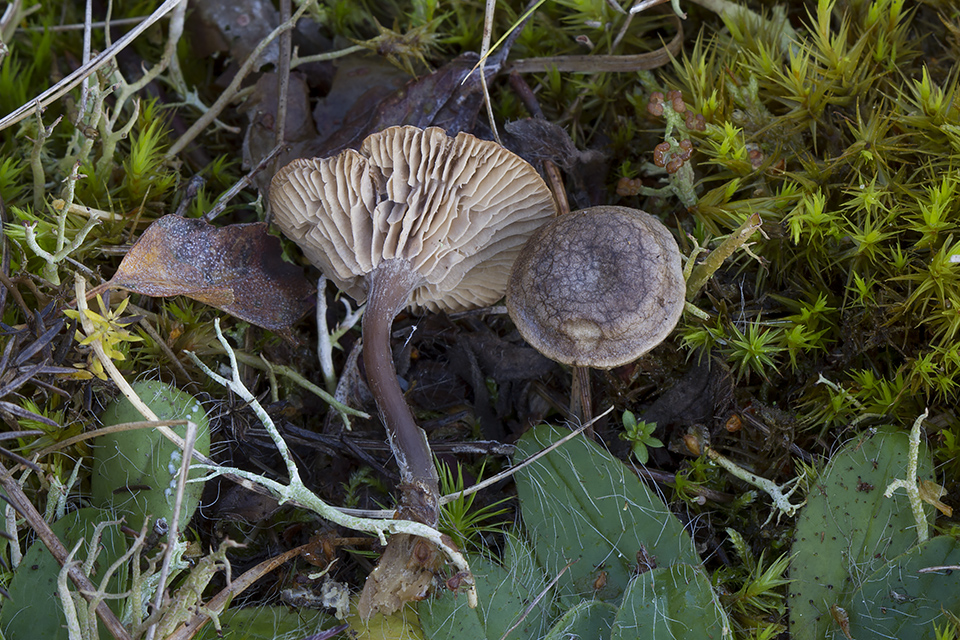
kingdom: Fungi
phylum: Basidiomycota
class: Agaricomycetes
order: Agaricales
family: Entolomataceae
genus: Clitopilus
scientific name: Clitopilus caelatus
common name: gråbrun troldhat
